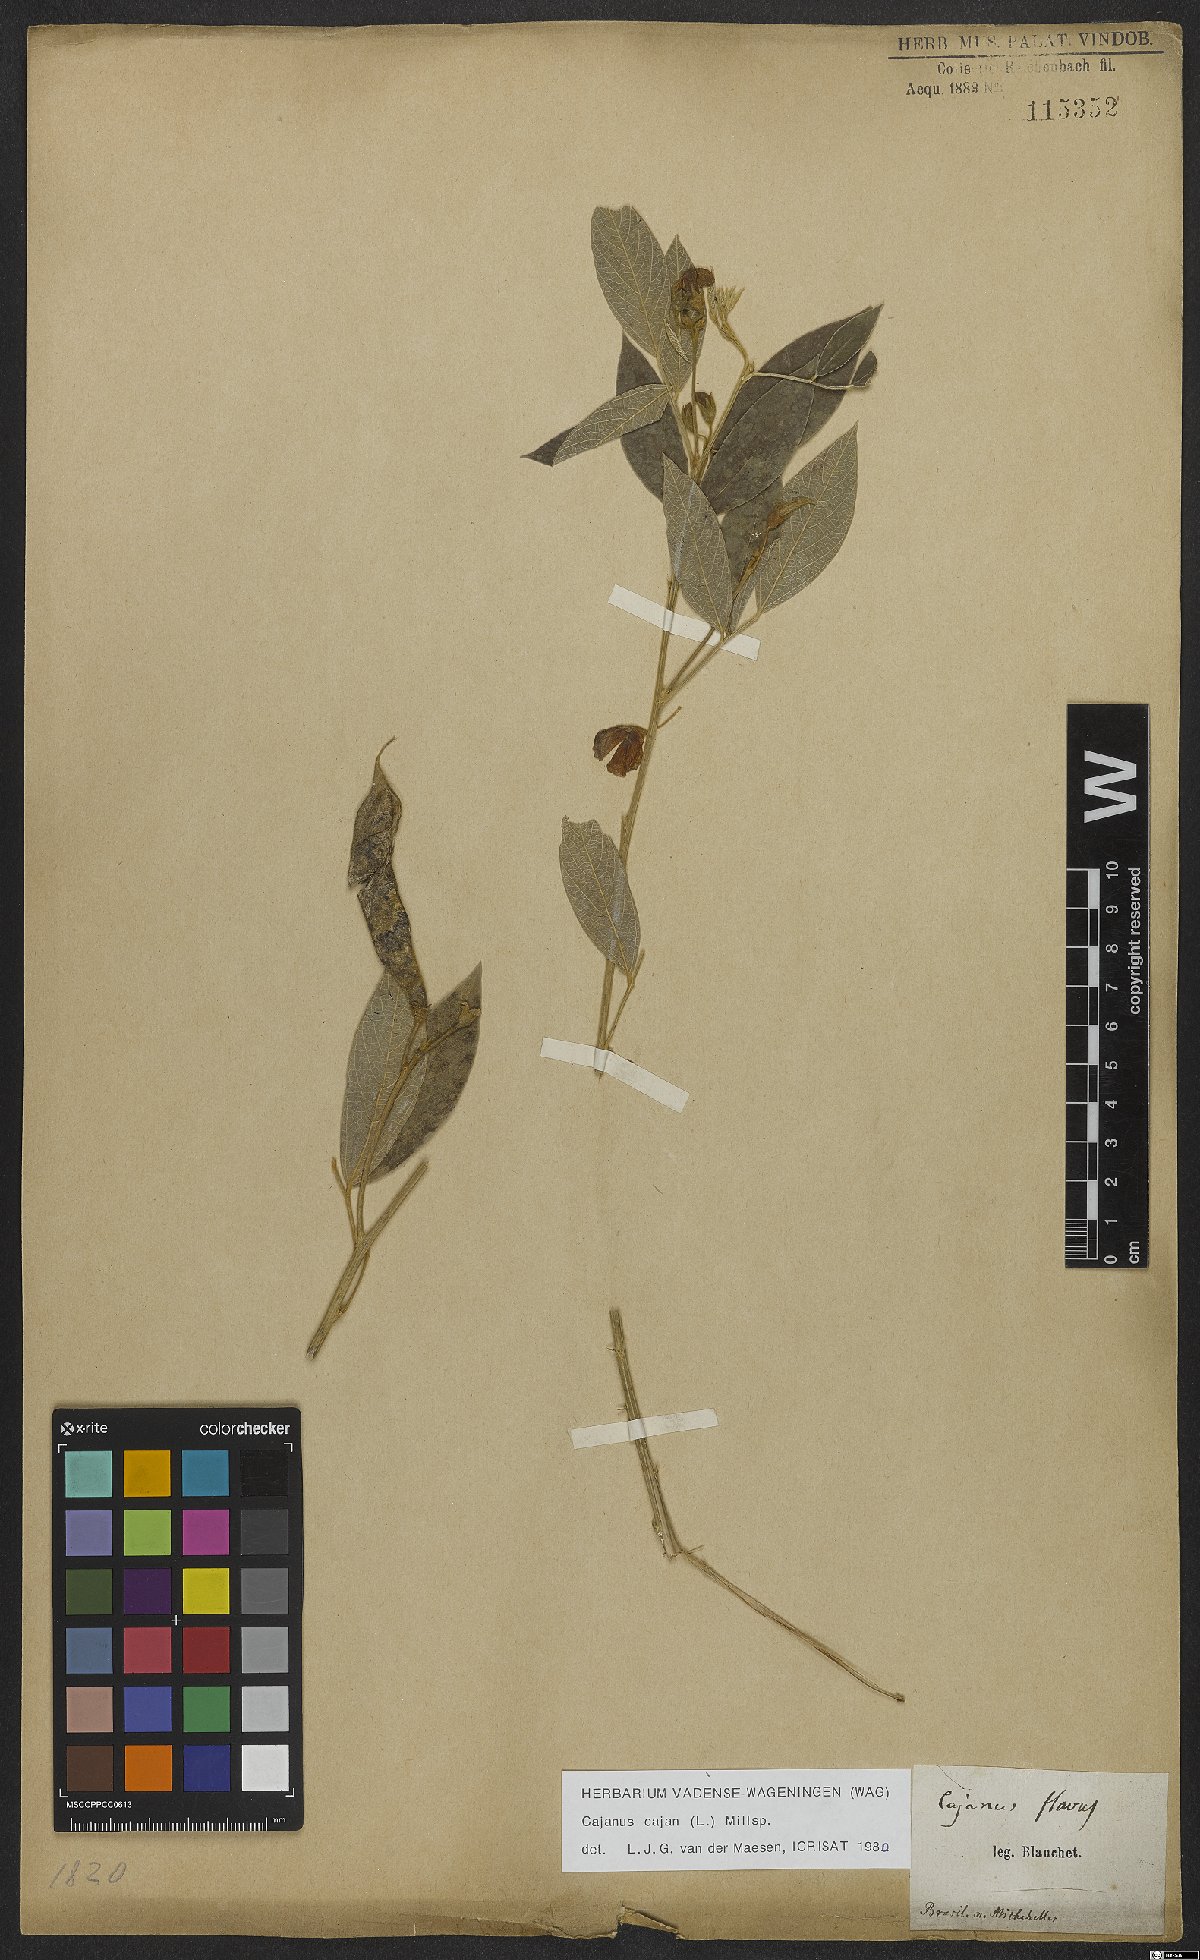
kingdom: Plantae
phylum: Tracheophyta
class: Magnoliopsida
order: Fabales
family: Fabaceae
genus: Cajanus
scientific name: Cajanus cajan
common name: Pigeonpea
